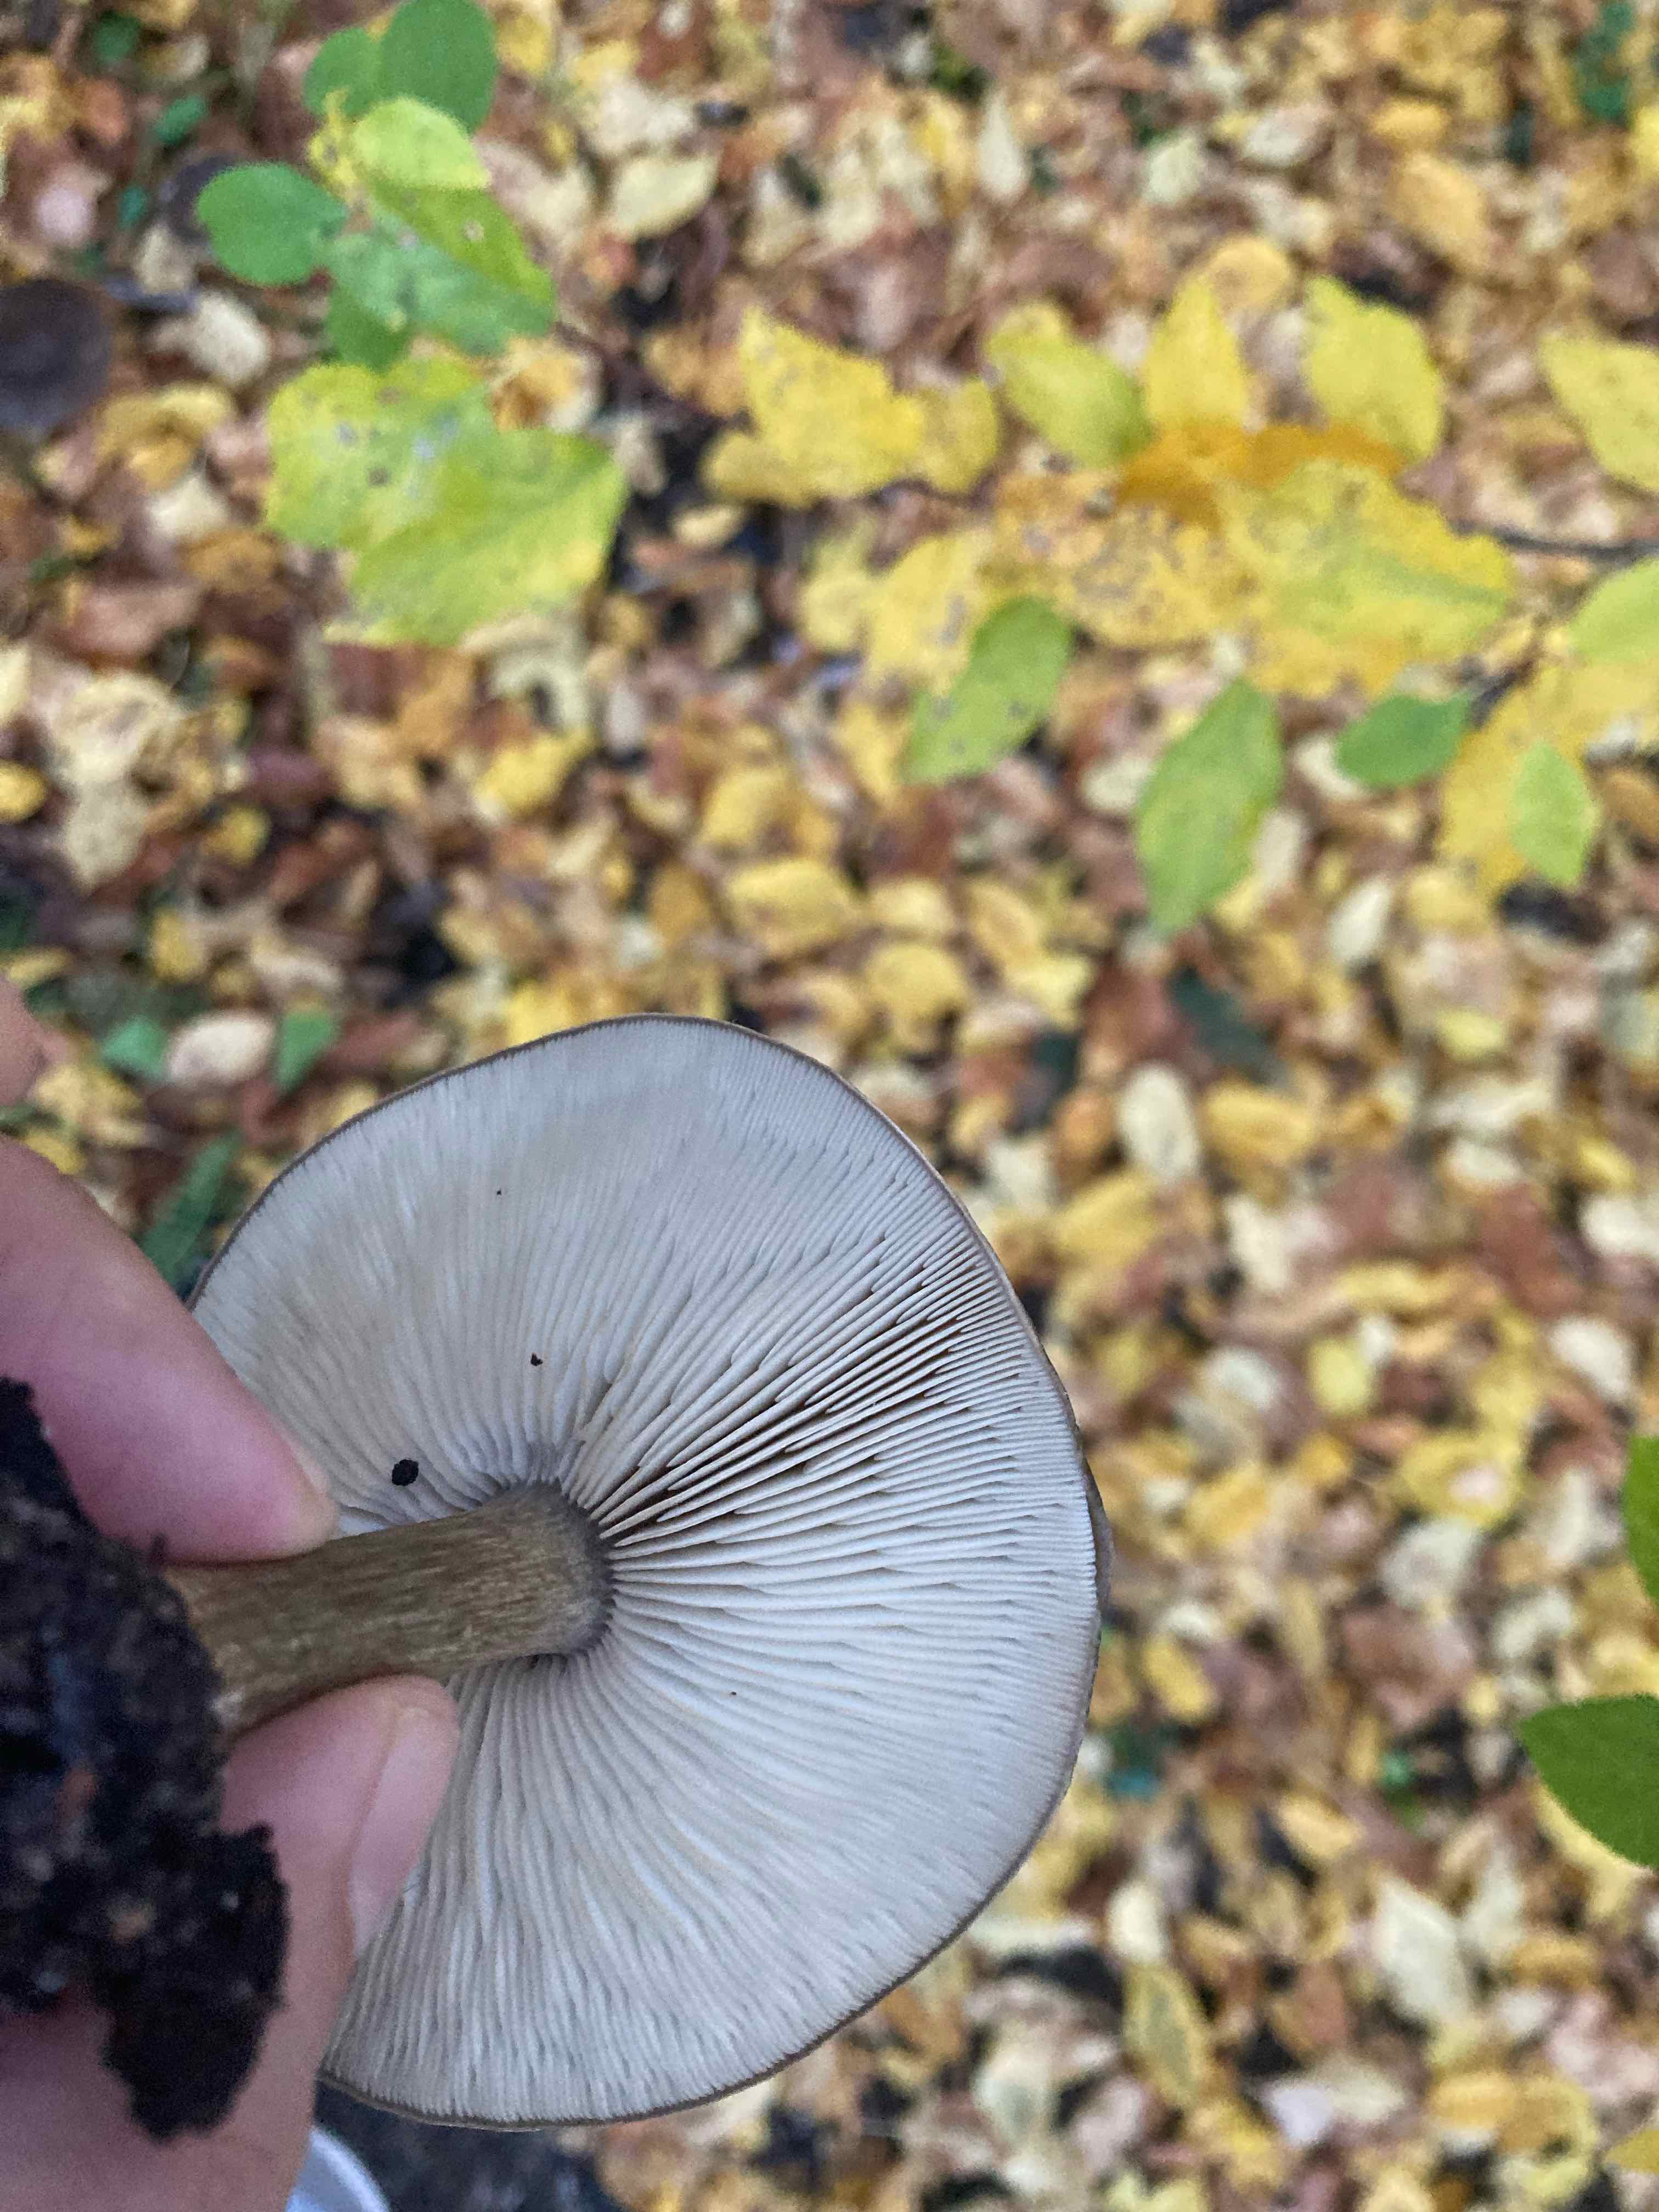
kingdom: Fungi
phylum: Basidiomycota
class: Agaricomycetes
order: Agaricales
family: Tricholomataceae
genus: Melanoleuca
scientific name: Melanoleuca
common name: munkehat
